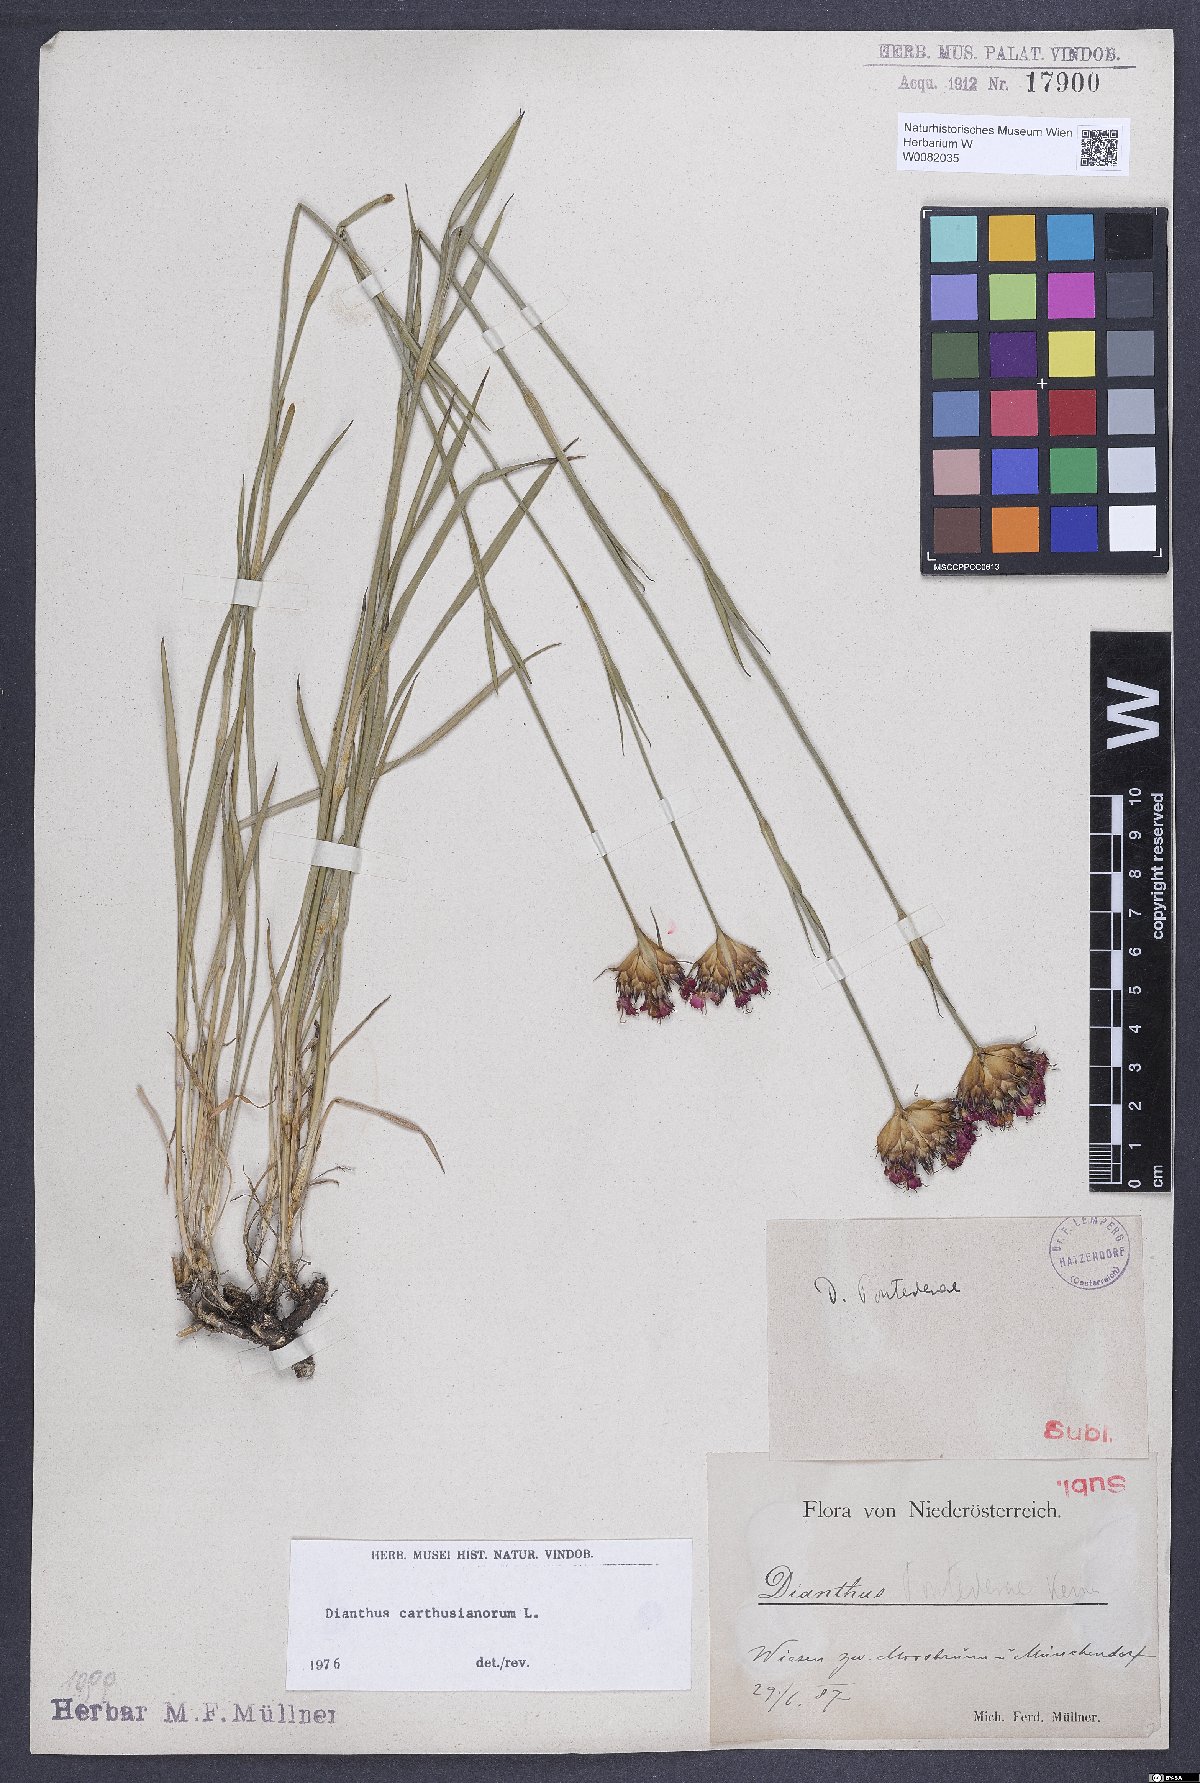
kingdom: Plantae
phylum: Tracheophyta
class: Magnoliopsida
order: Caryophyllales
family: Caryophyllaceae
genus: Dianthus
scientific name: Dianthus carthusianorum
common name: Carthusian pink
